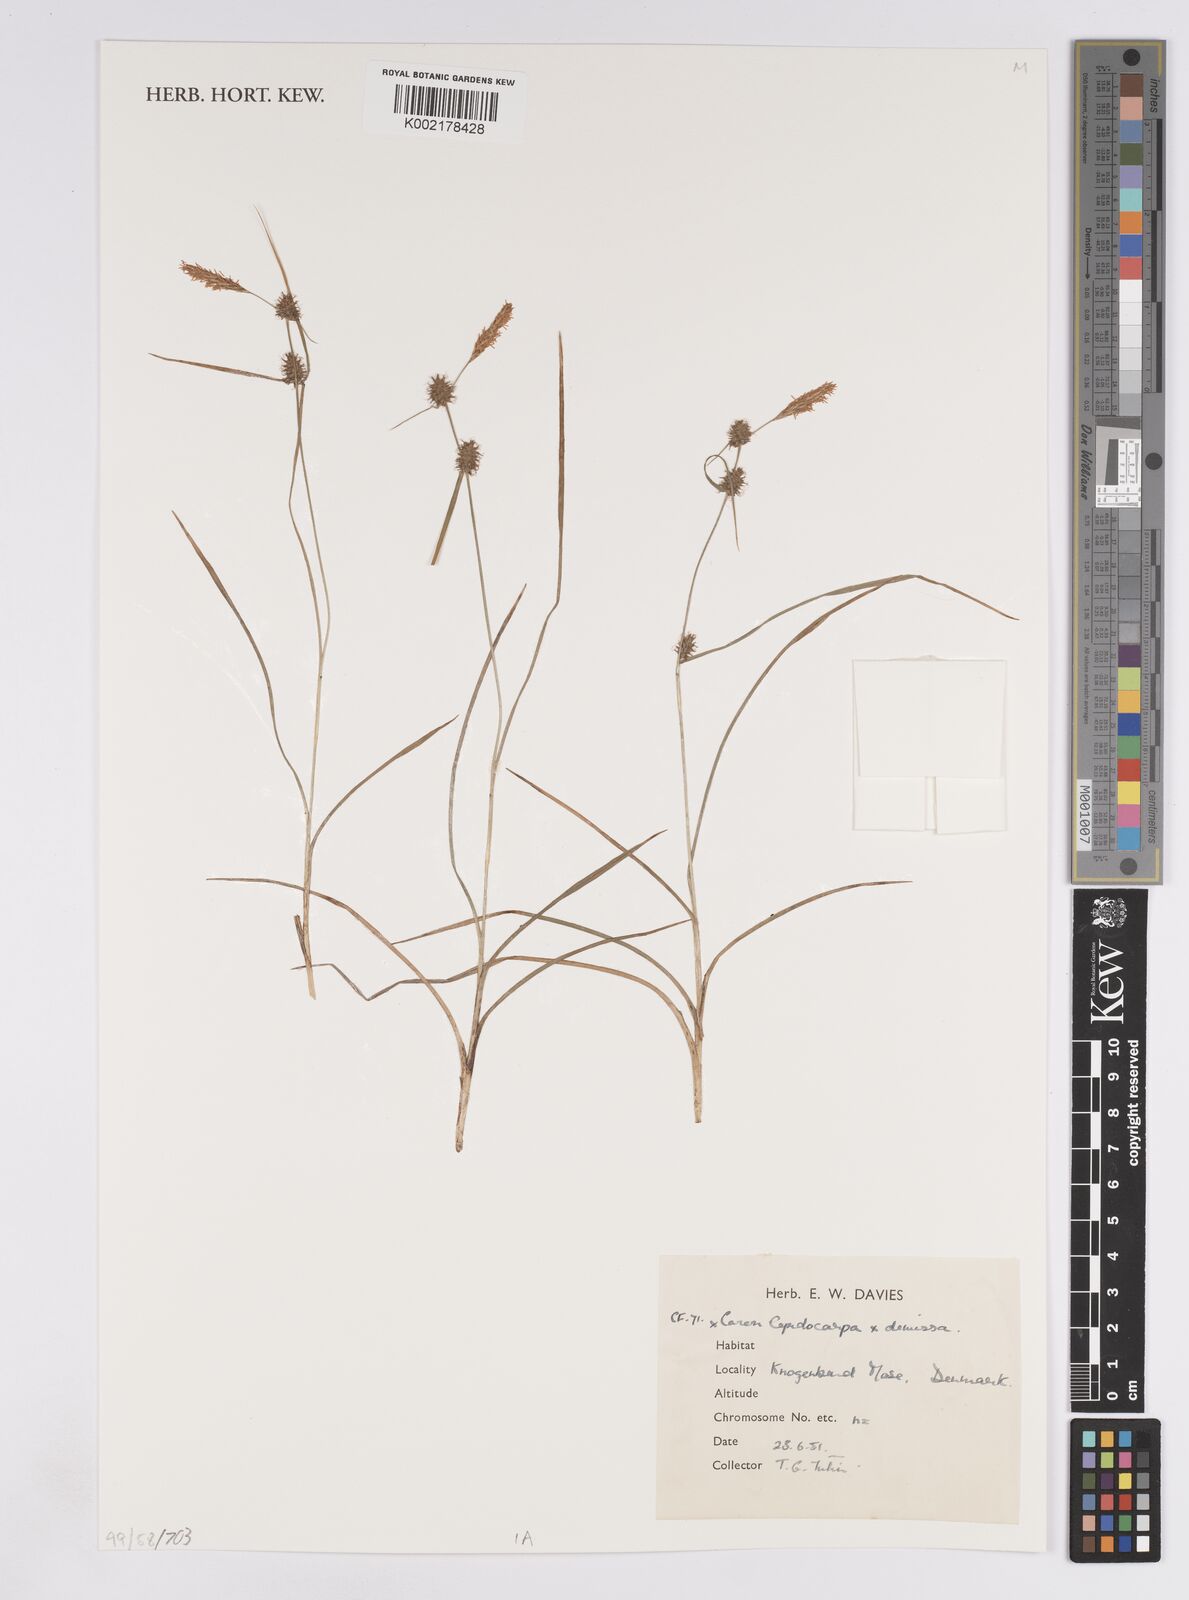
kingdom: Plantae
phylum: Tracheophyta
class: Liliopsida
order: Poales
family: Cyperaceae
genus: Carex
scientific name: Carex lepidocarpa
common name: Long-stalked yellow-sedge
